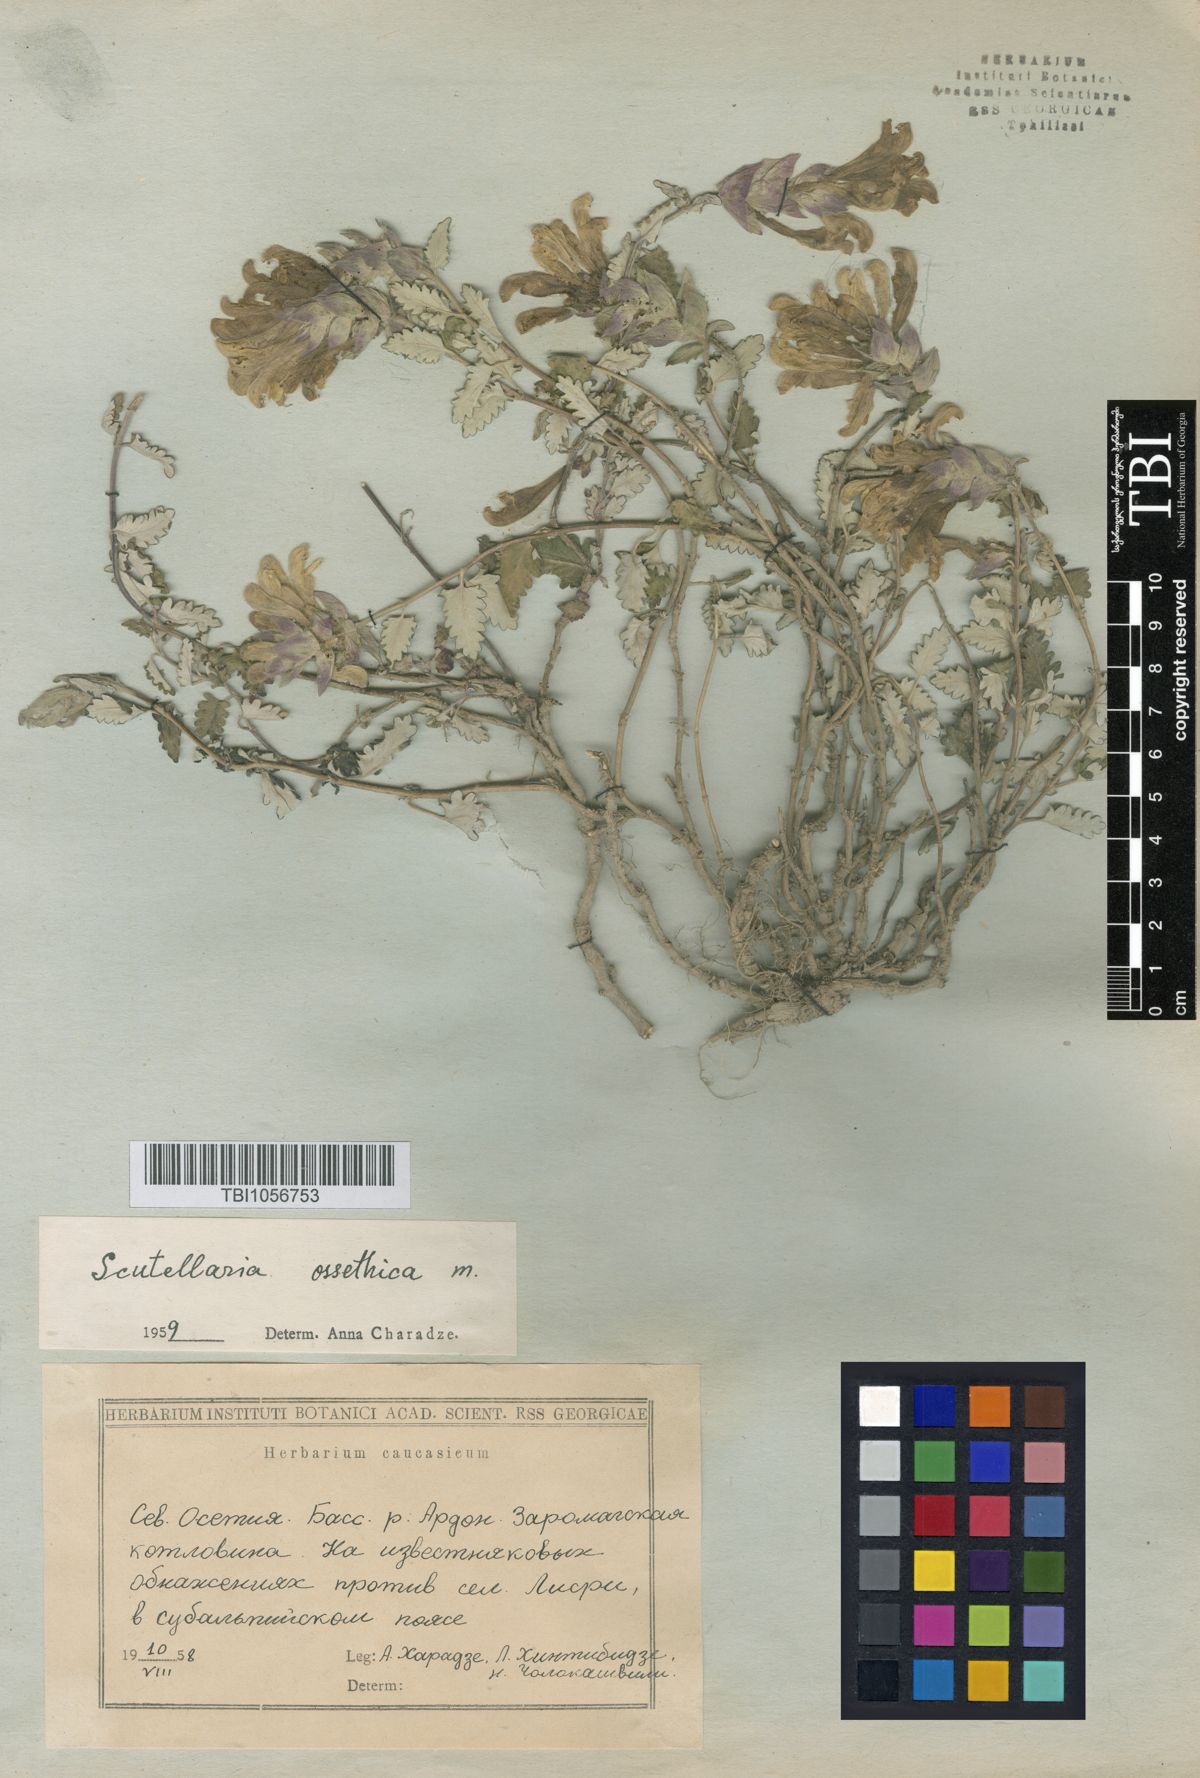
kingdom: Plantae
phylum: Tracheophyta
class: Magnoliopsida
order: Lamiales
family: Lamiaceae
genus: Scutellaria
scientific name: Scutellaria ossethica
